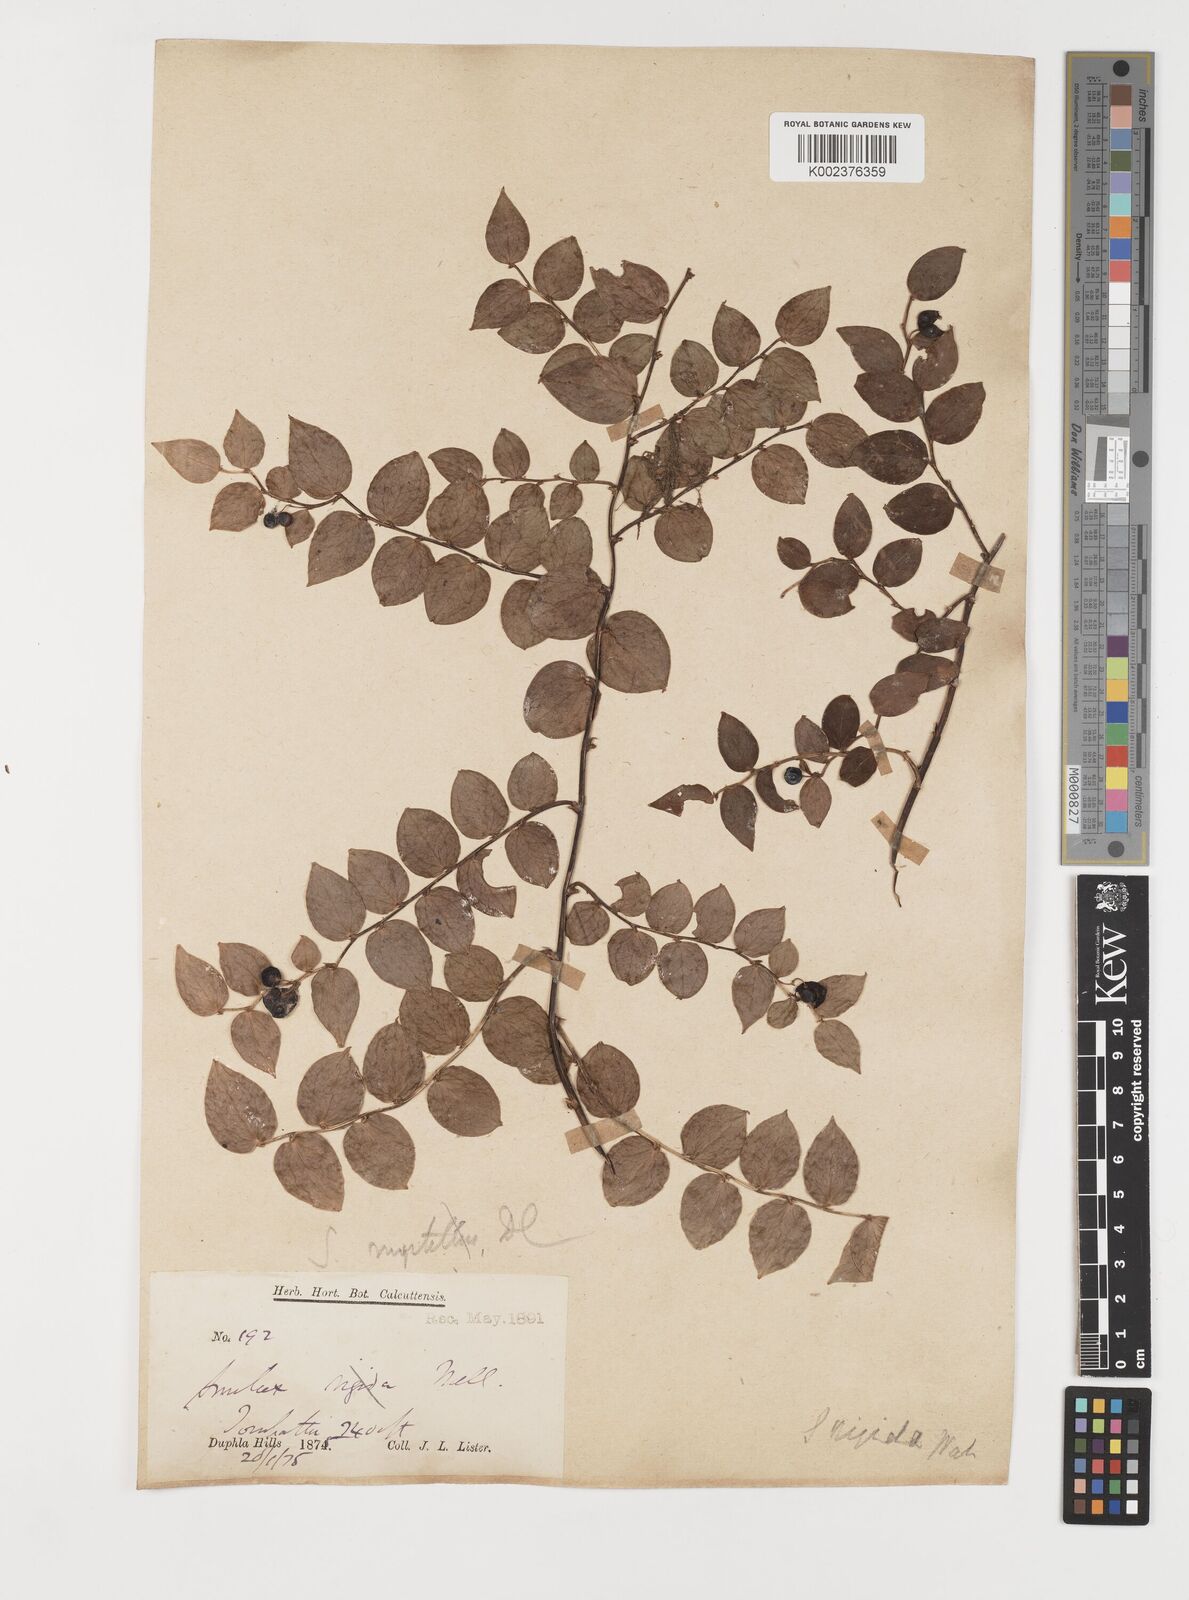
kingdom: Plantae
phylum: Tracheophyta
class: Liliopsida
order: Liliales
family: Smilacaceae
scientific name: Smilacaceae
